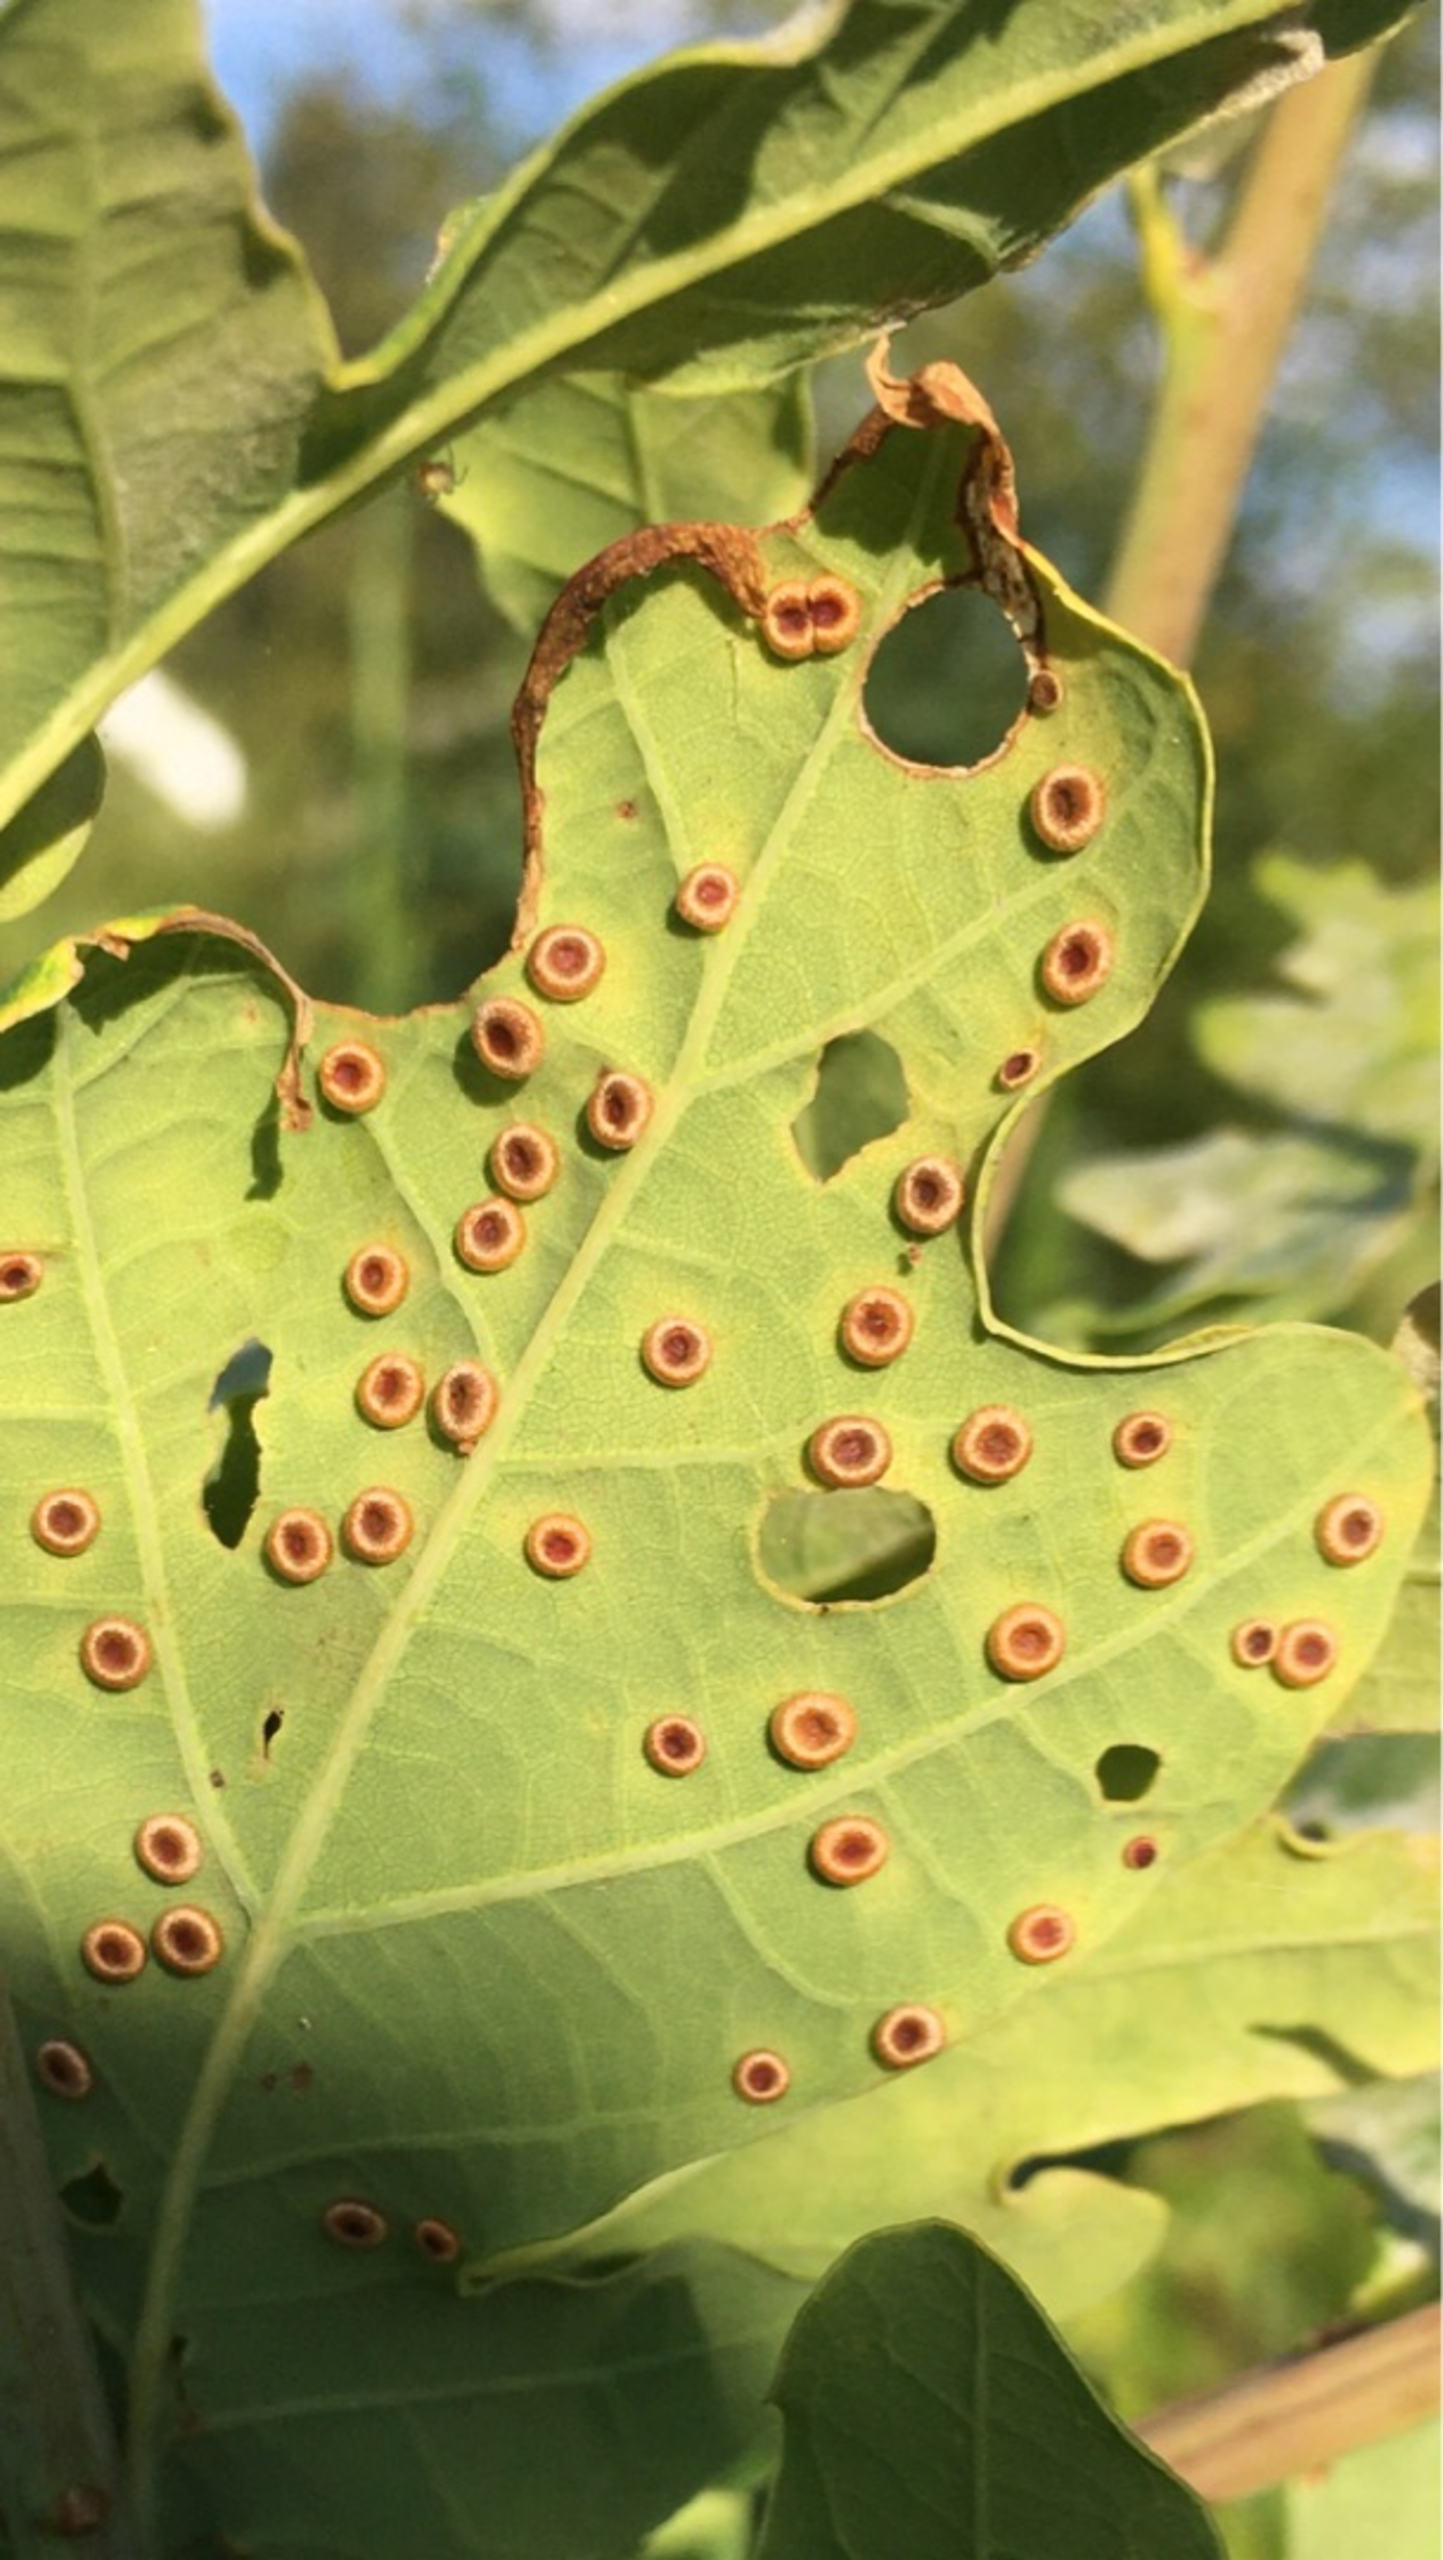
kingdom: Animalia
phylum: Arthropoda
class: Insecta
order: Hymenoptera
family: Cynipidae
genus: Neuroterus
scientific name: Neuroterus numismalis
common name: Knapgalhveps
